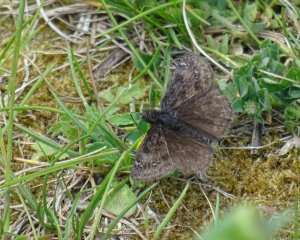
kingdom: Animalia
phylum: Arthropoda
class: Insecta
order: Lepidoptera
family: Hesperiidae
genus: Gesta
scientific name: Gesta
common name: Juvenal's Duskywing
